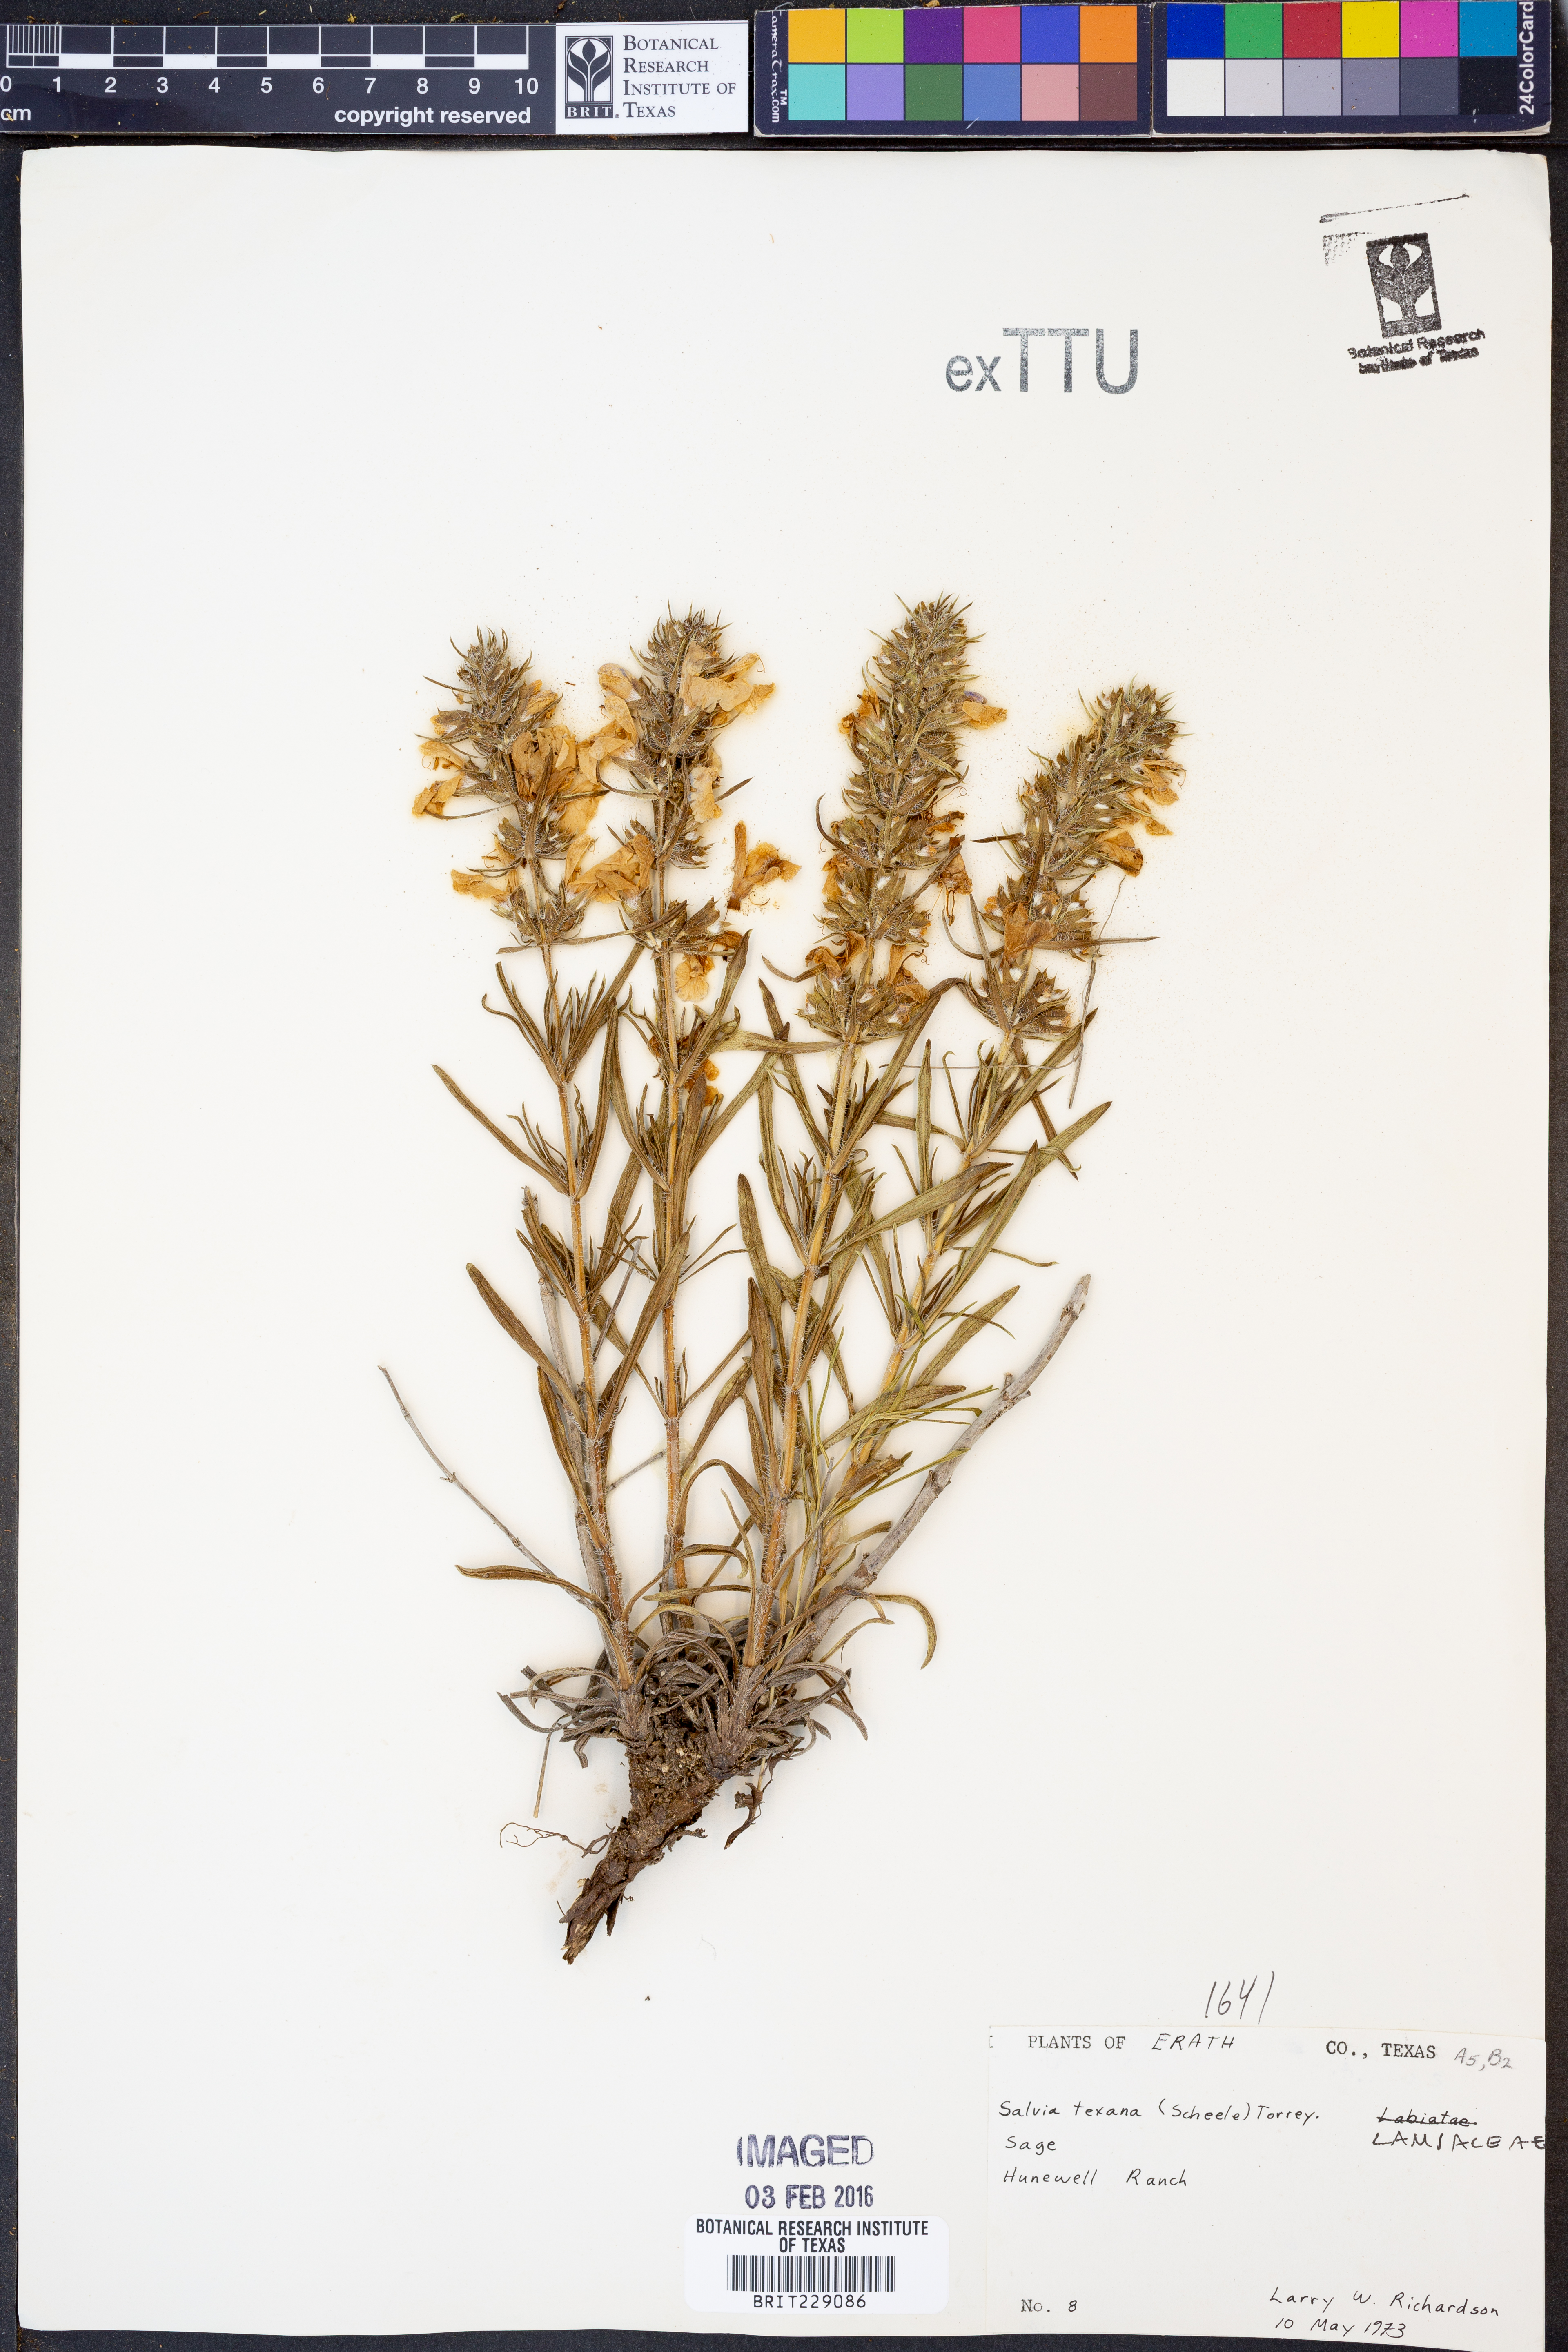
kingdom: Plantae
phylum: Tracheophyta
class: Magnoliopsida
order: Lamiales
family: Lamiaceae
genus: Salvia
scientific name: Salvia texana
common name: Texas sage
